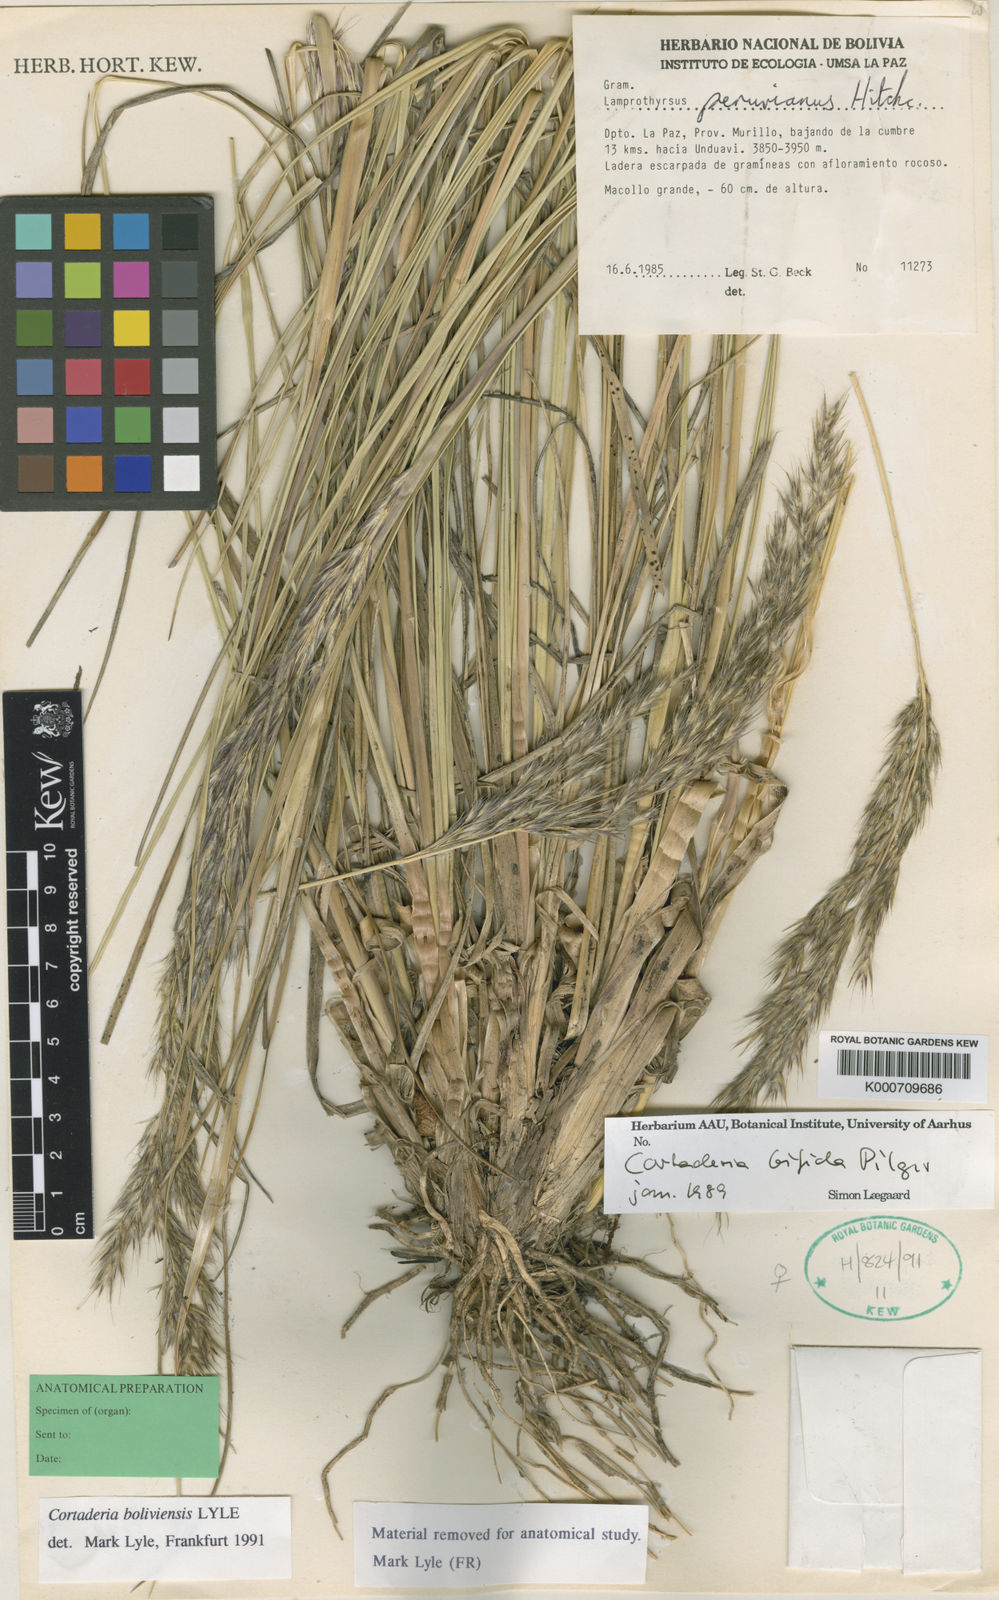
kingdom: Plantae
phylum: Tracheophyta
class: Liliopsida
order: Poales
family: Poaceae
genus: Cortaderia
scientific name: Cortaderia boliviensis
